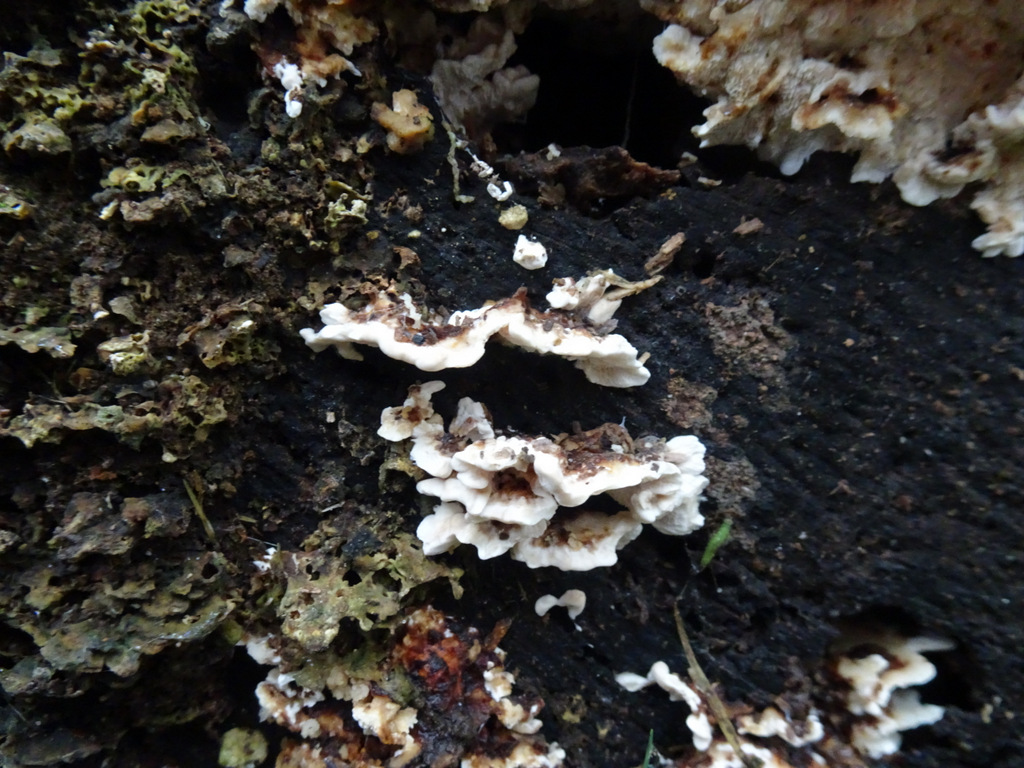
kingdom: Fungi
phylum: Basidiomycota
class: Agaricomycetes
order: Polyporales
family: Polyporaceae
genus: Trametes
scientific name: Trametes versicolor
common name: broget læderporesvamp
